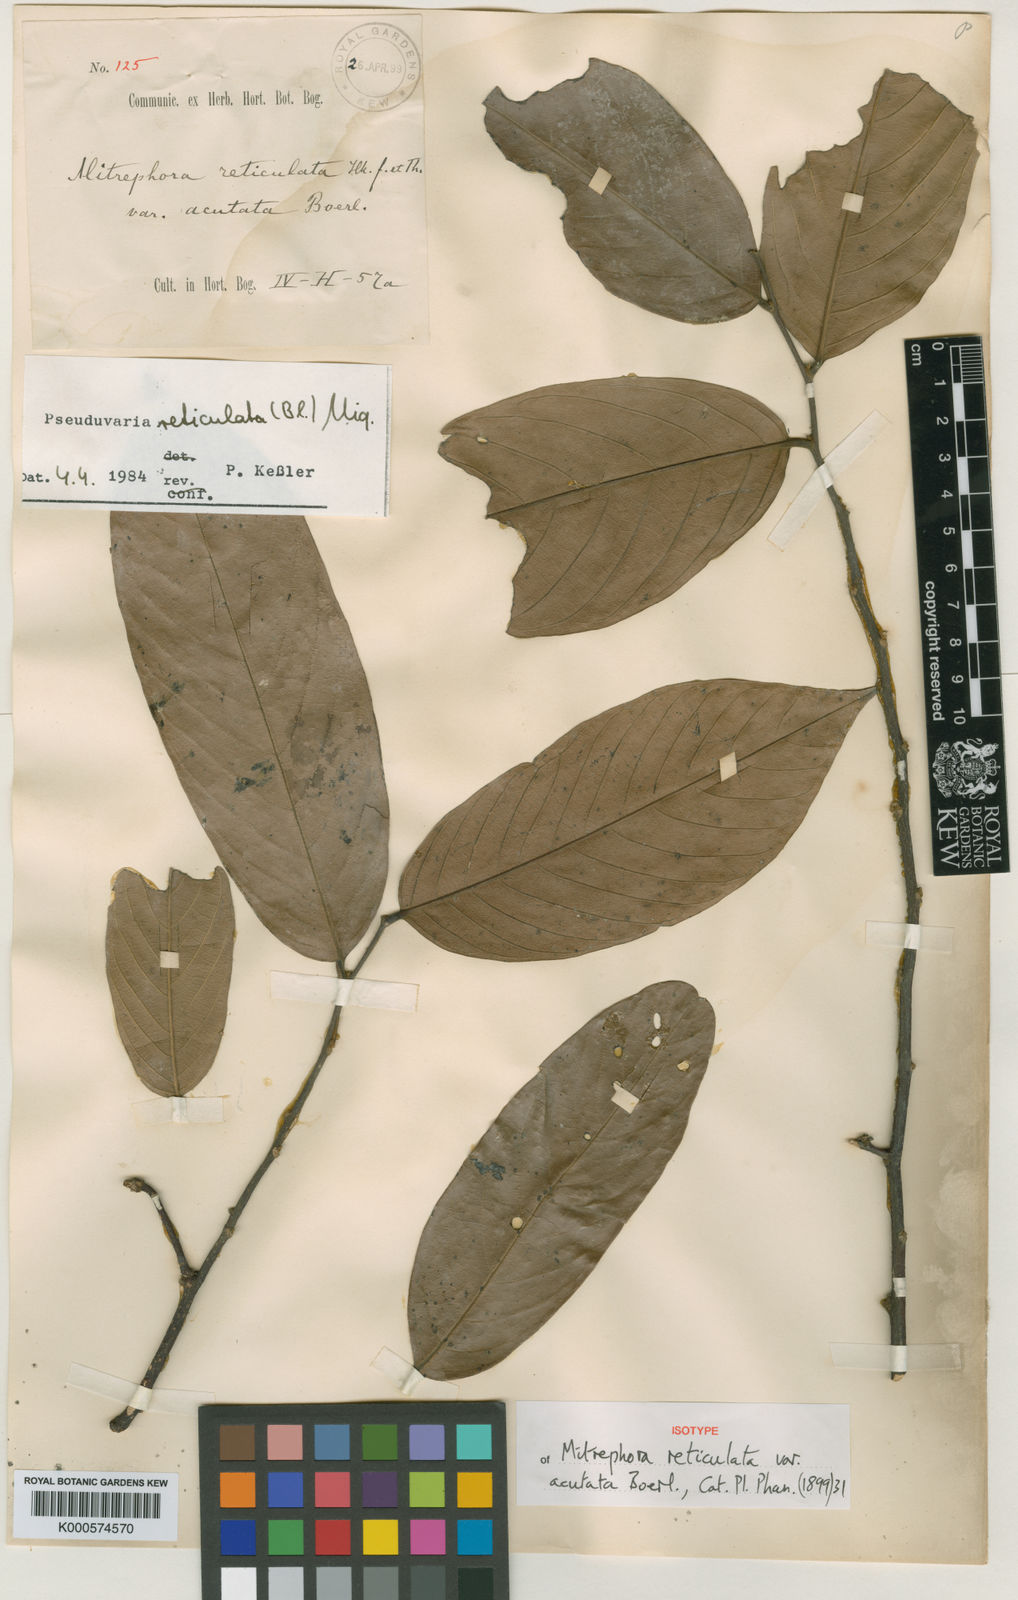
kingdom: Plantae
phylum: Tracheophyta
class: Magnoliopsida
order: Magnoliales
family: Annonaceae
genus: Pseuduvaria
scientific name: Pseuduvaria reticulata
